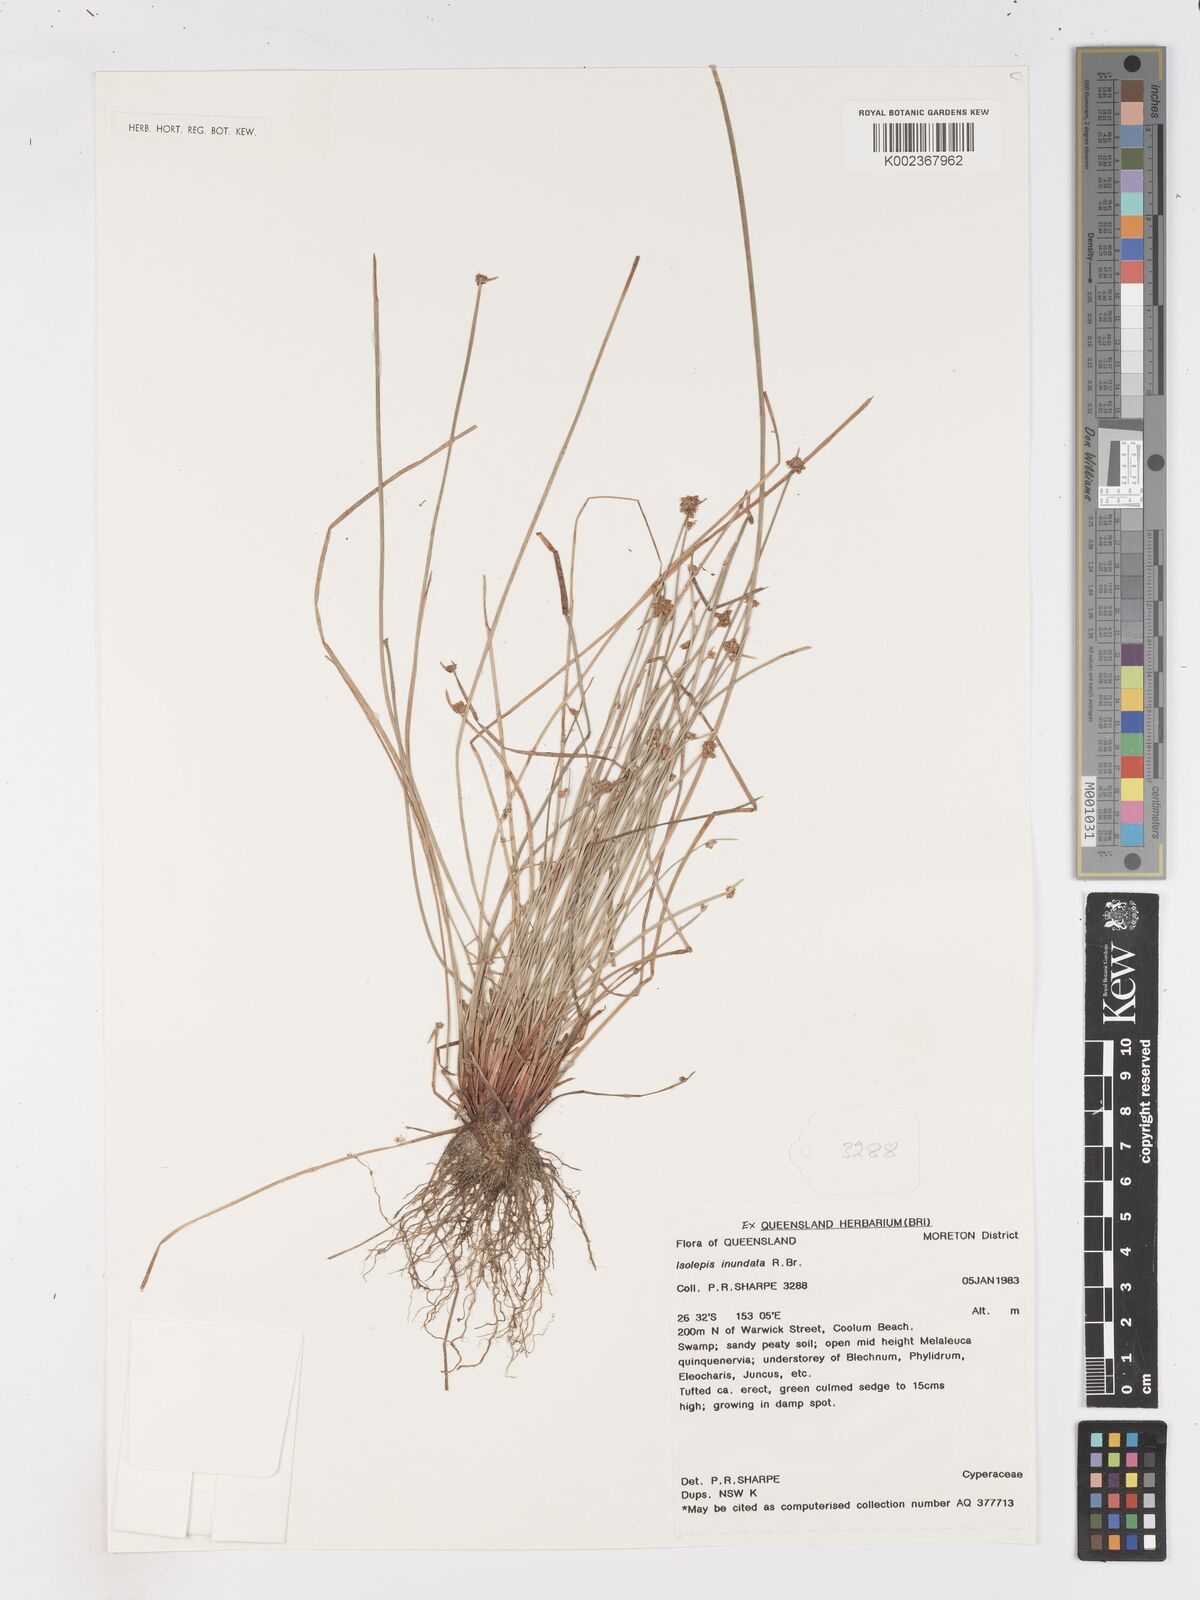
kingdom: Plantae
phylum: Tracheophyta
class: Liliopsida
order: Poales
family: Cyperaceae
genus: Isolepis
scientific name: Isolepis inundata
